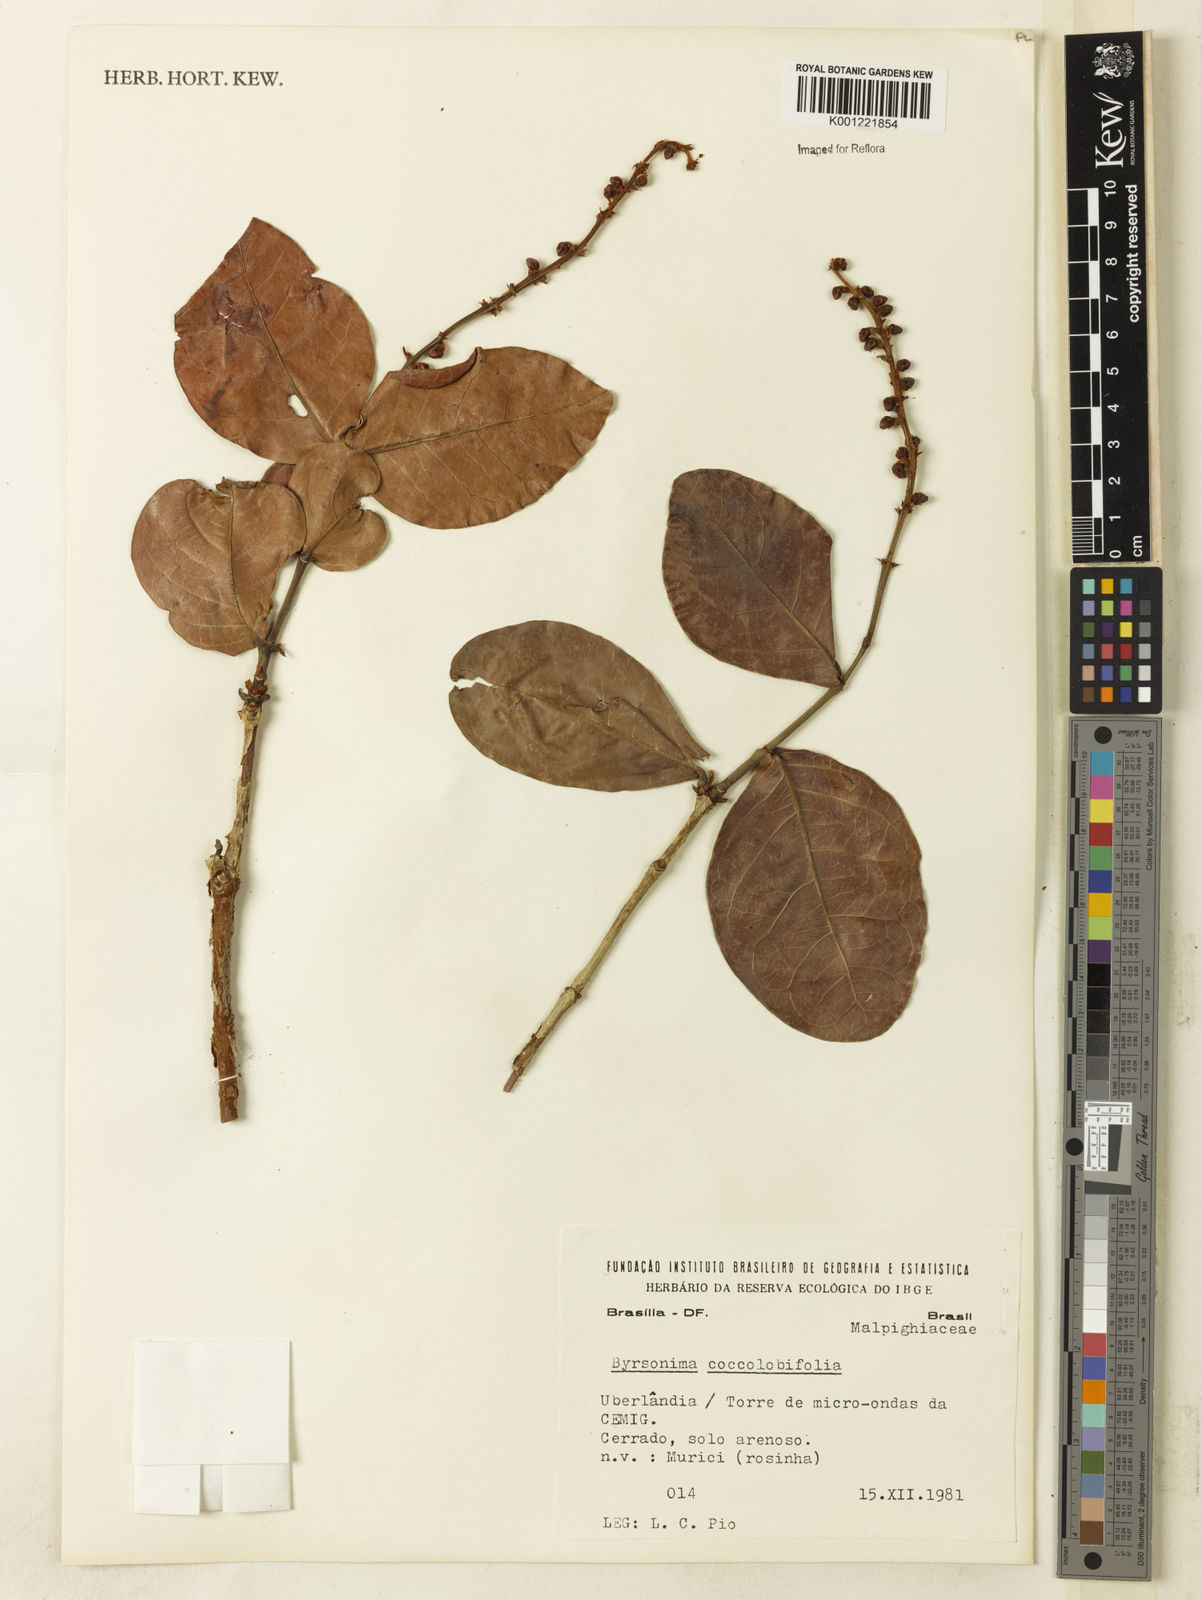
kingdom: Plantae
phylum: Tracheophyta
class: Magnoliopsida
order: Malpighiales
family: Malpighiaceae
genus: Byrsonima
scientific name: Byrsonima coccolobifolia
